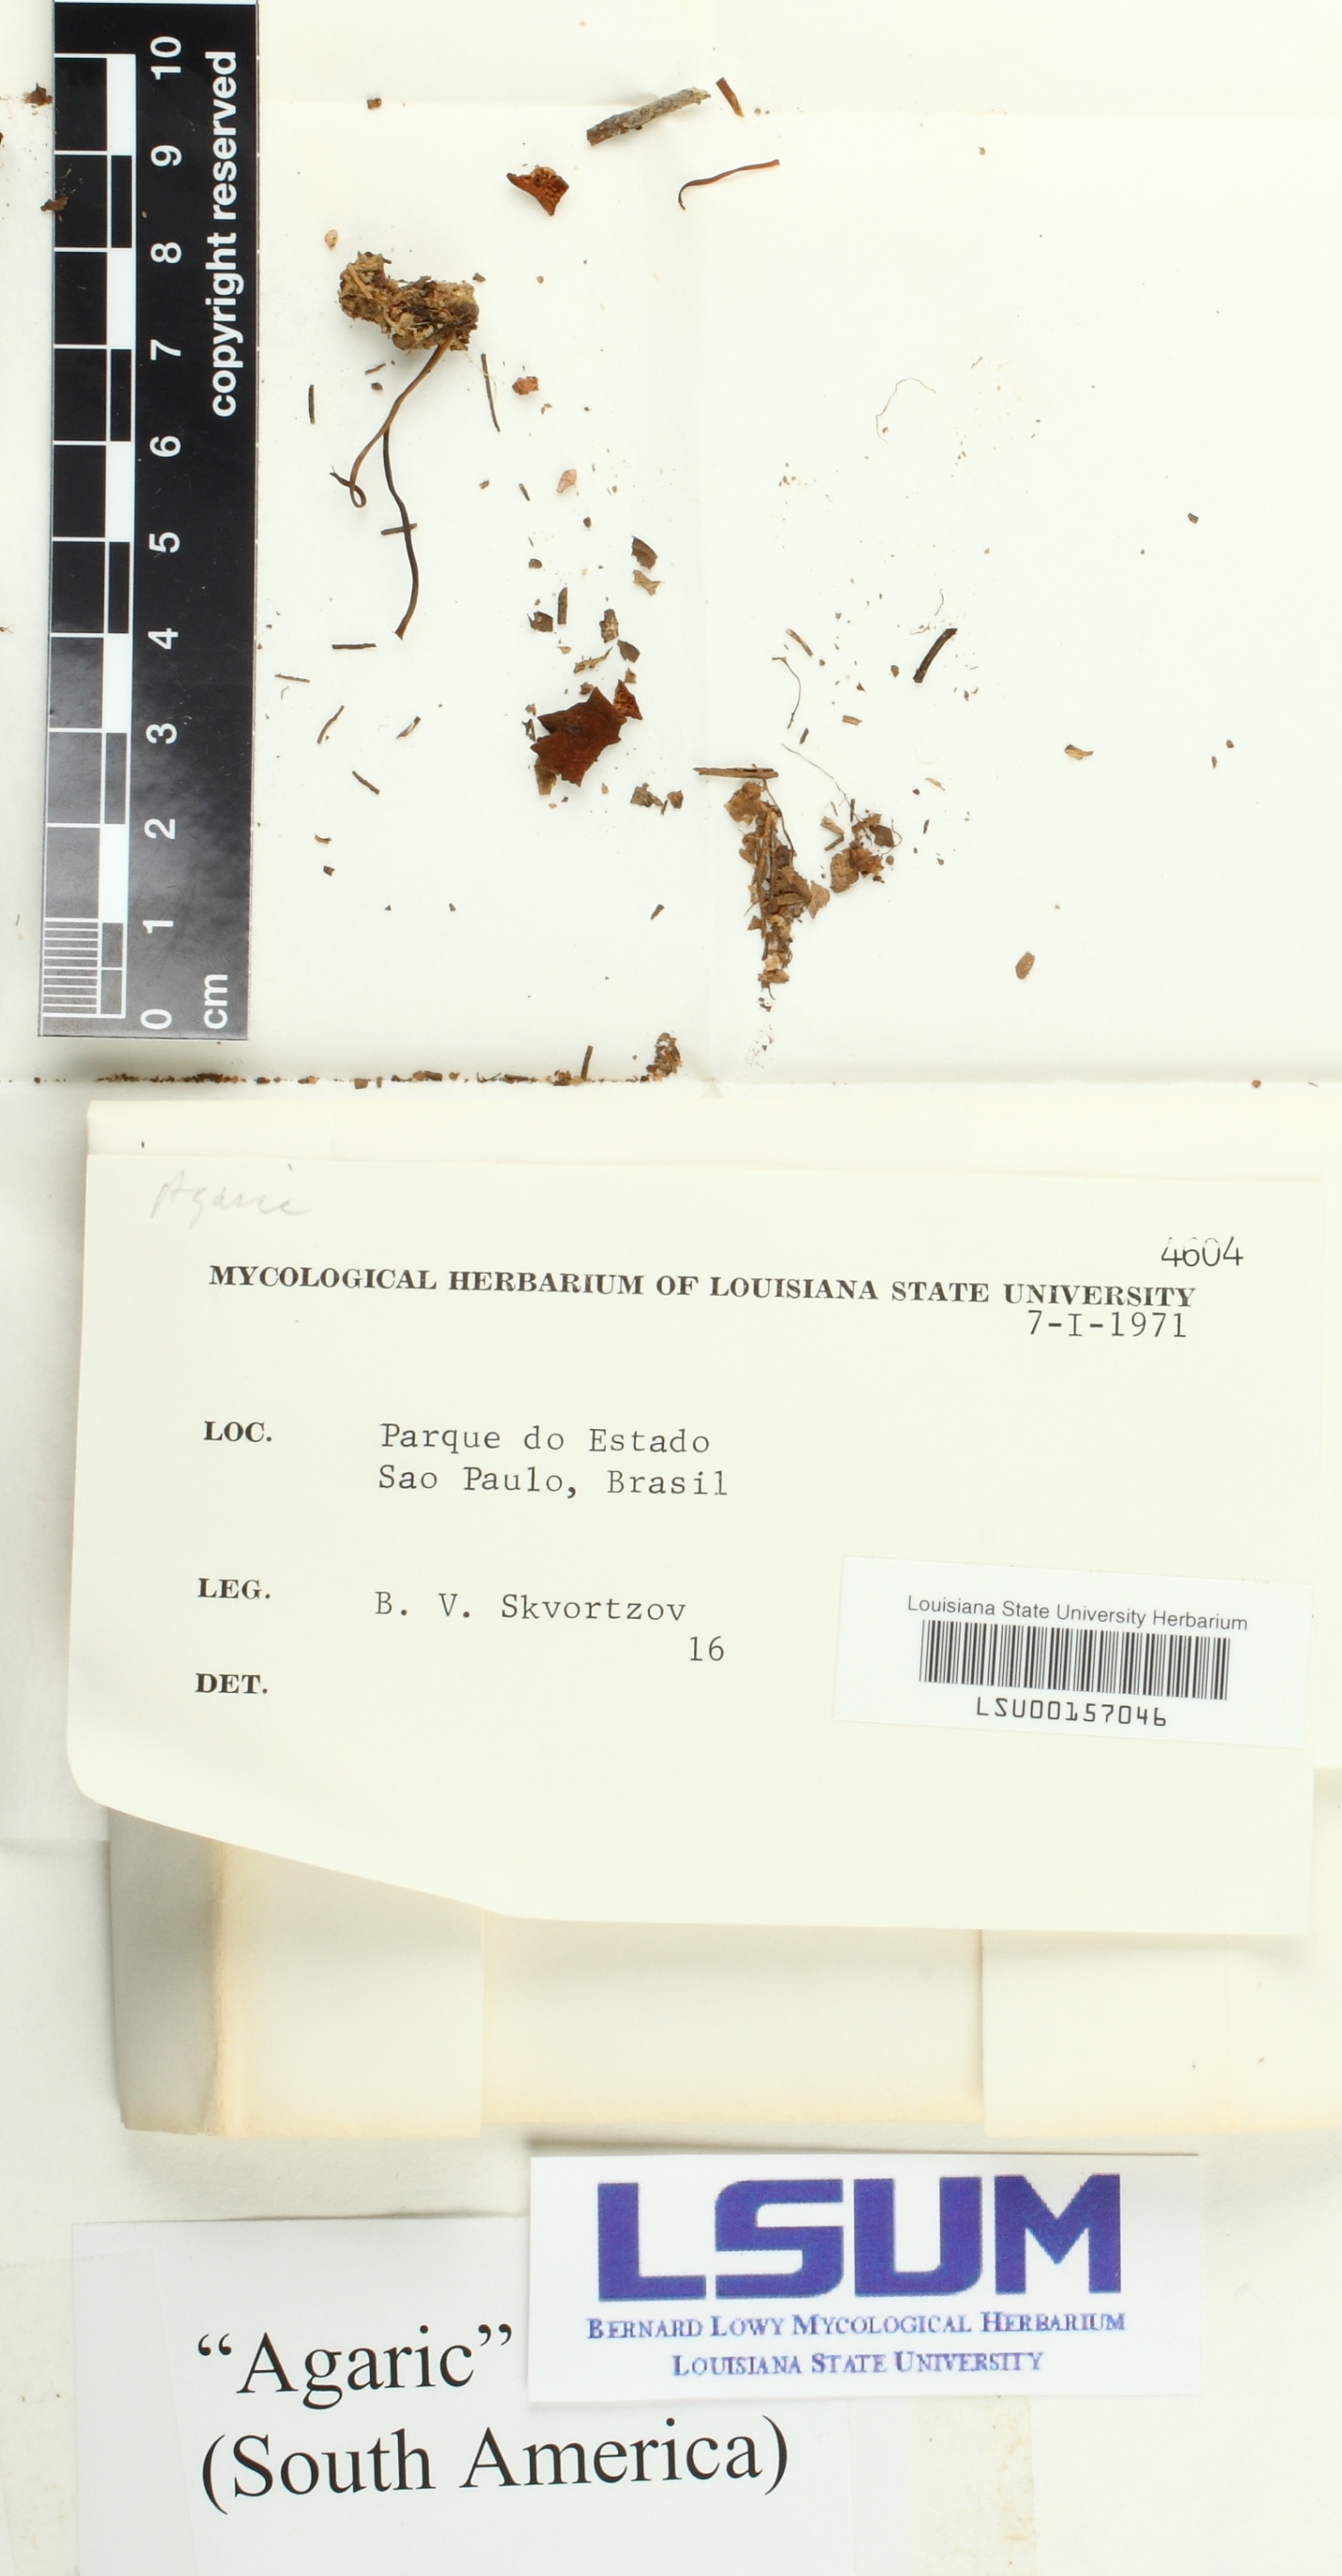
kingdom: Fungi
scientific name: Fungi
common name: Fungi
